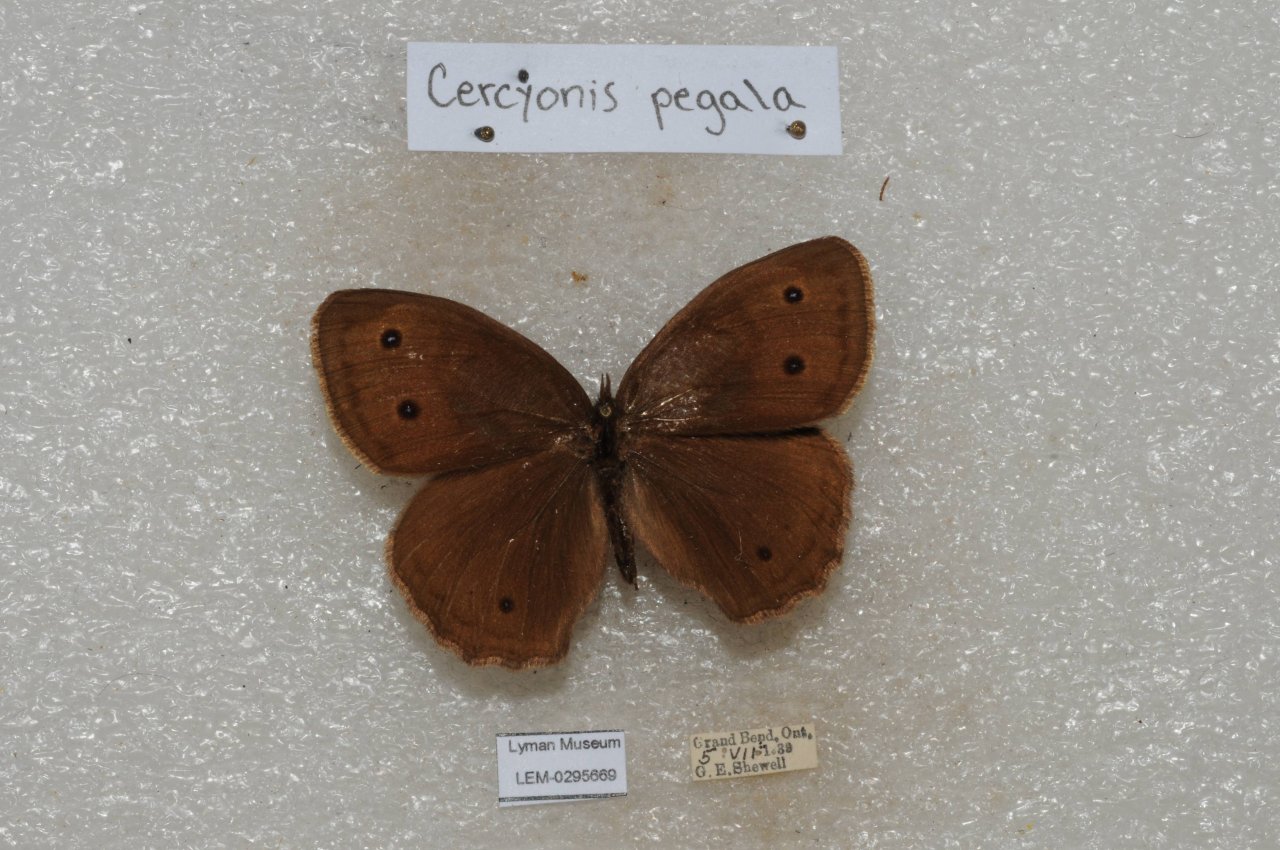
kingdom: Animalia
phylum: Arthropoda
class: Insecta
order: Lepidoptera
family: Nymphalidae
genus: Cercyonis
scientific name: Cercyonis pegala
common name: Common Wood-Nymph
